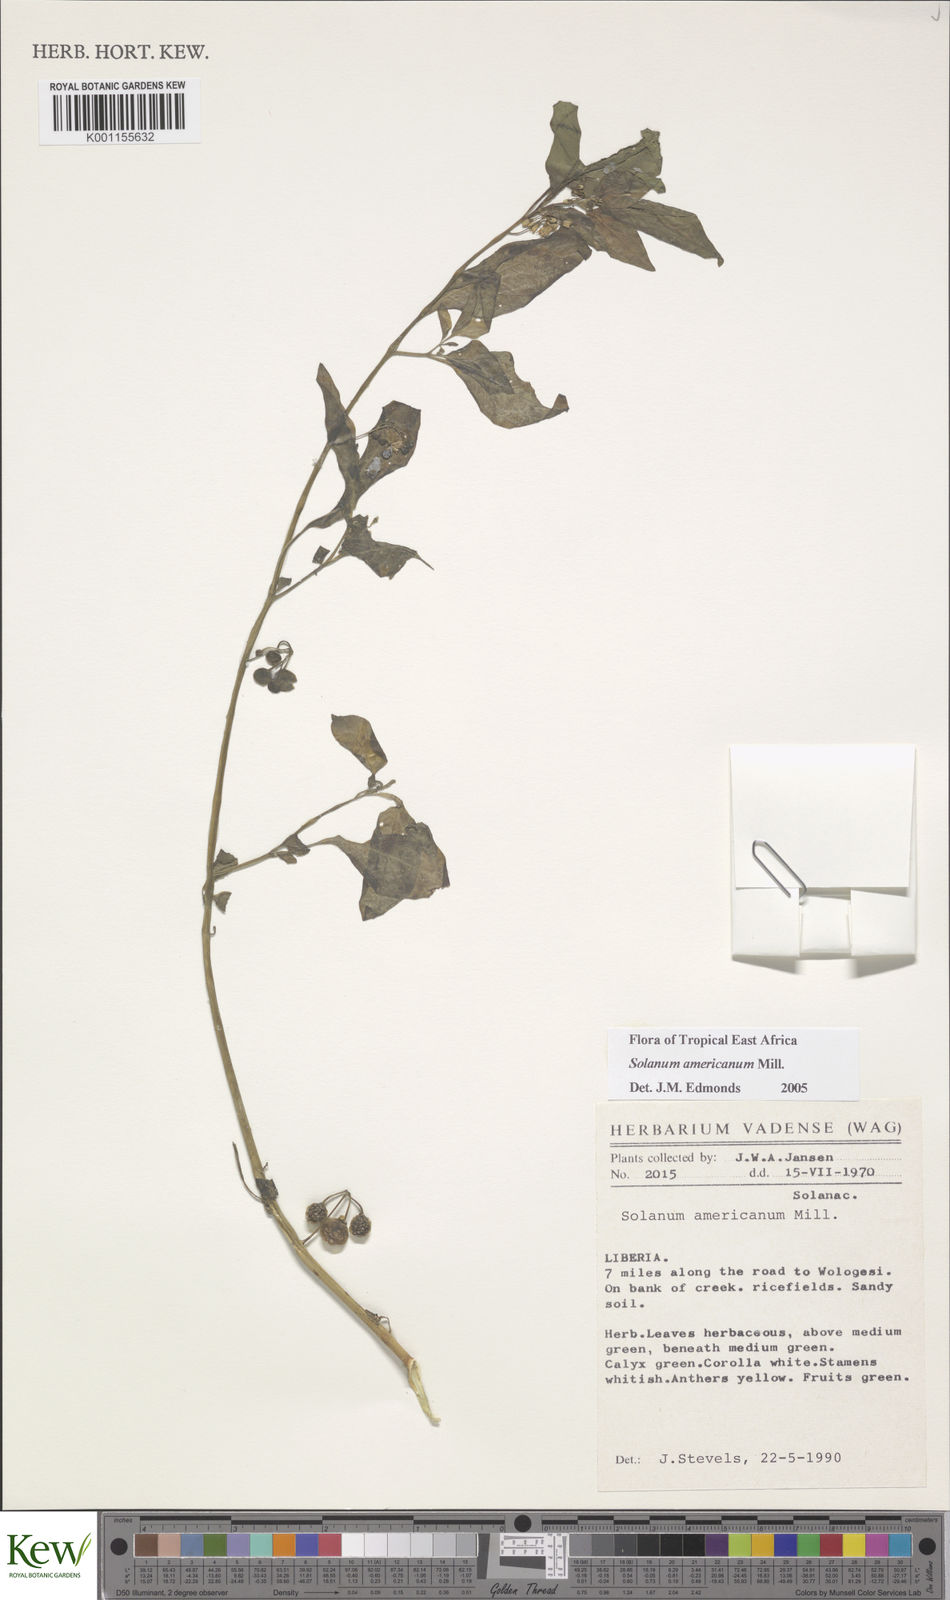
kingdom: Plantae
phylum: Tracheophyta
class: Magnoliopsida
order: Solanales
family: Solanaceae
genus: Solanum
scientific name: Solanum scabrum
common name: Garden-huckleberry
